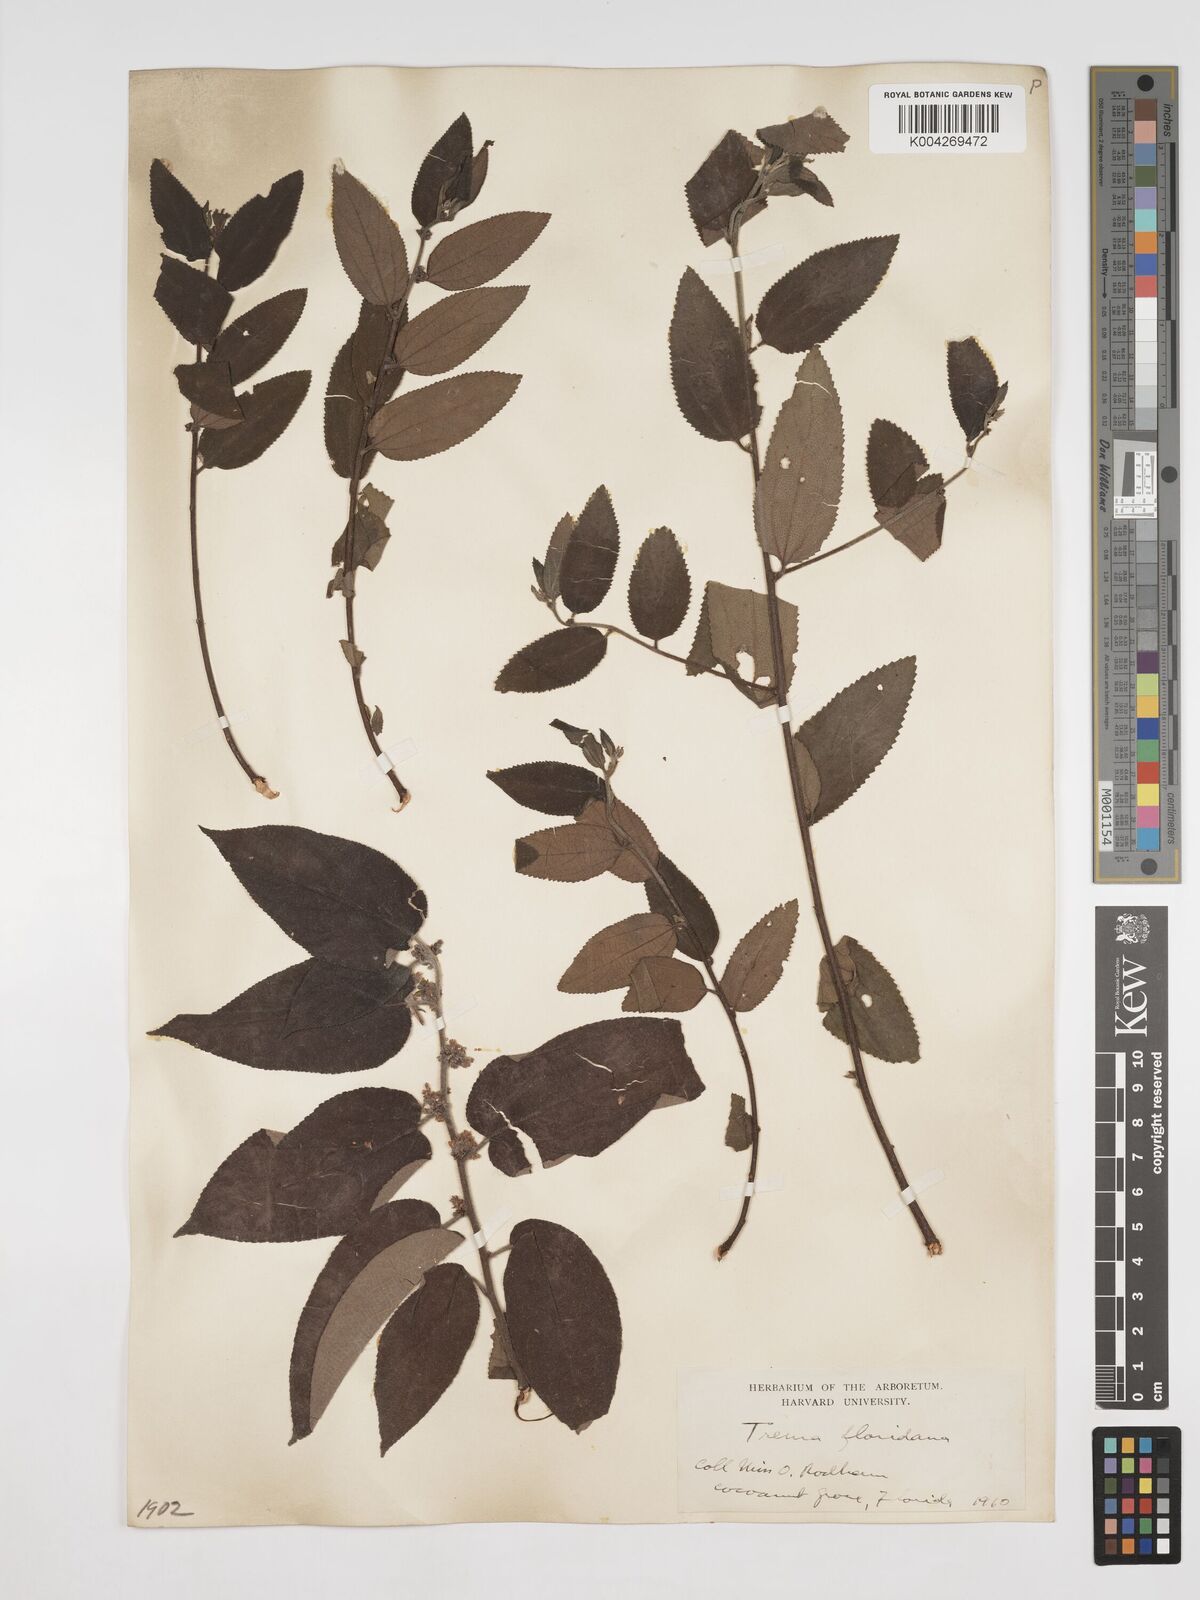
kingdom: Plantae
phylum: Tracheophyta
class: Magnoliopsida
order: Rosales
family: Cannabaceae
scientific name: Cannabaceae
